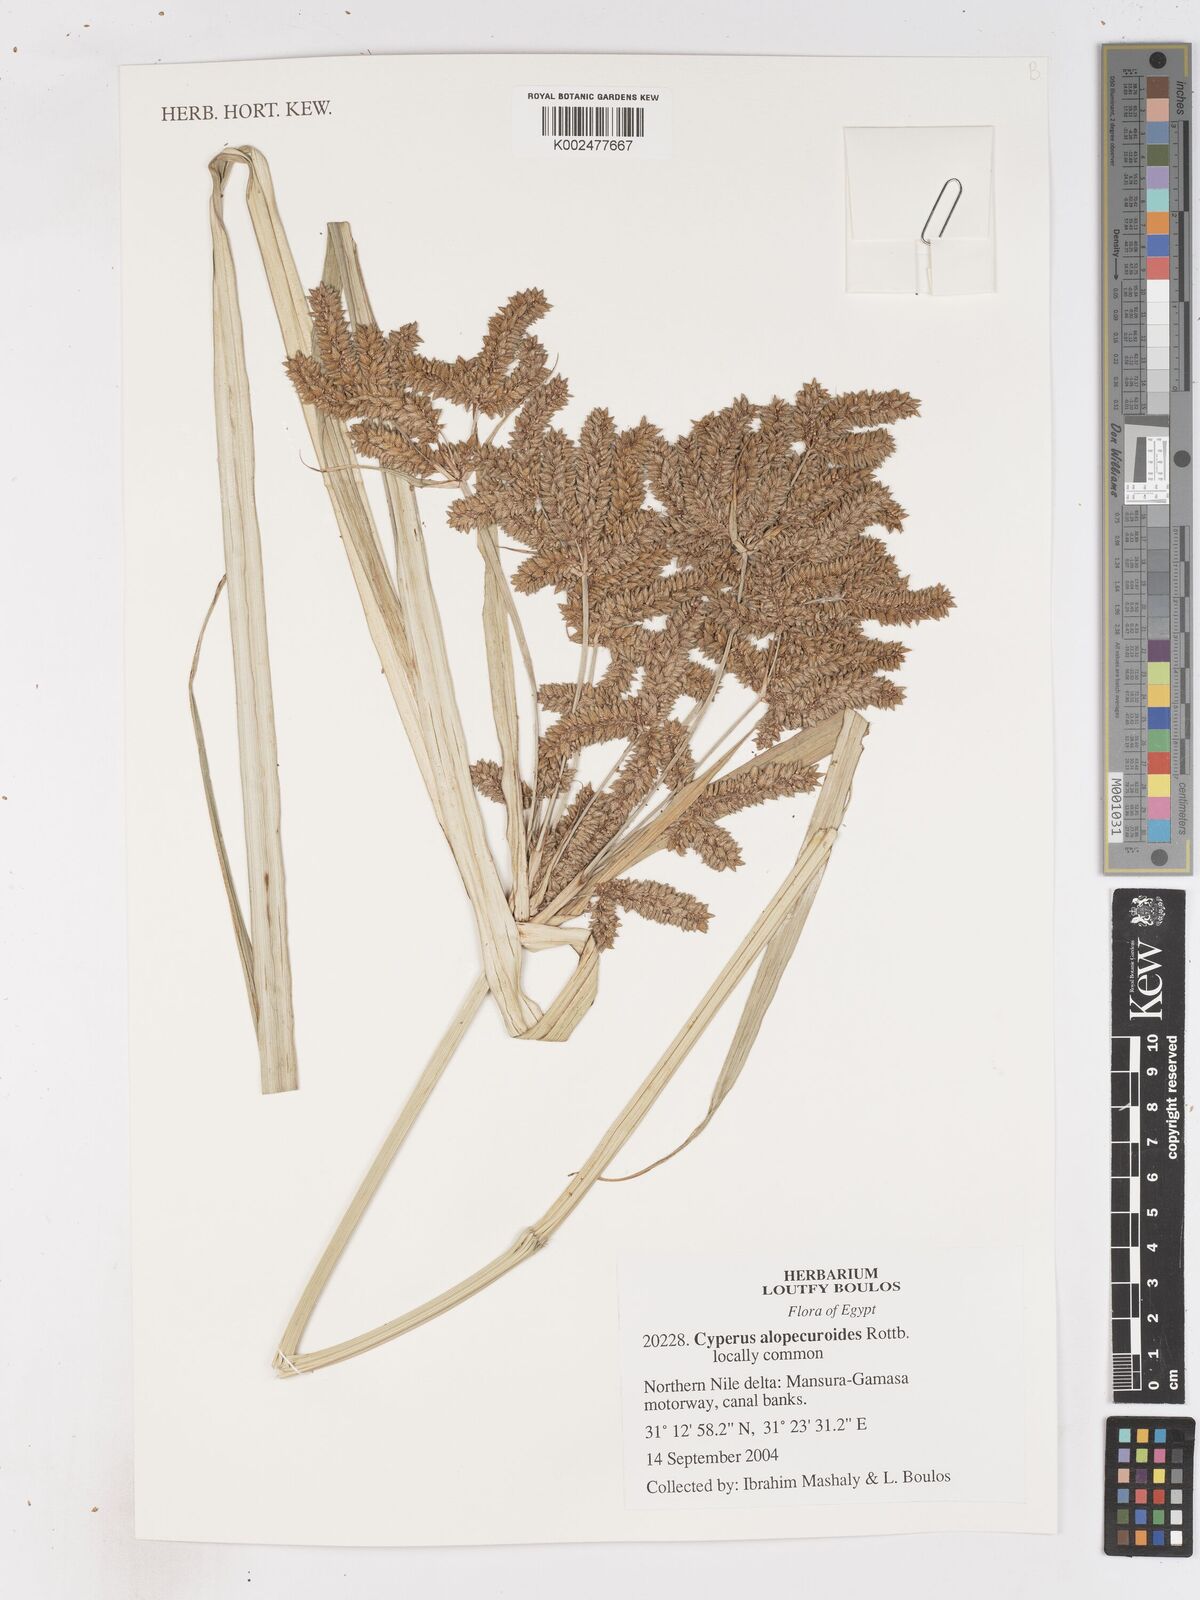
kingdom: Plantae
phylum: Tracheophyta
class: Liliopsida
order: Poales
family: Cyperaceae
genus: Cyperus
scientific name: Cyperus alopecuroides
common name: Foxtail flatsedge
